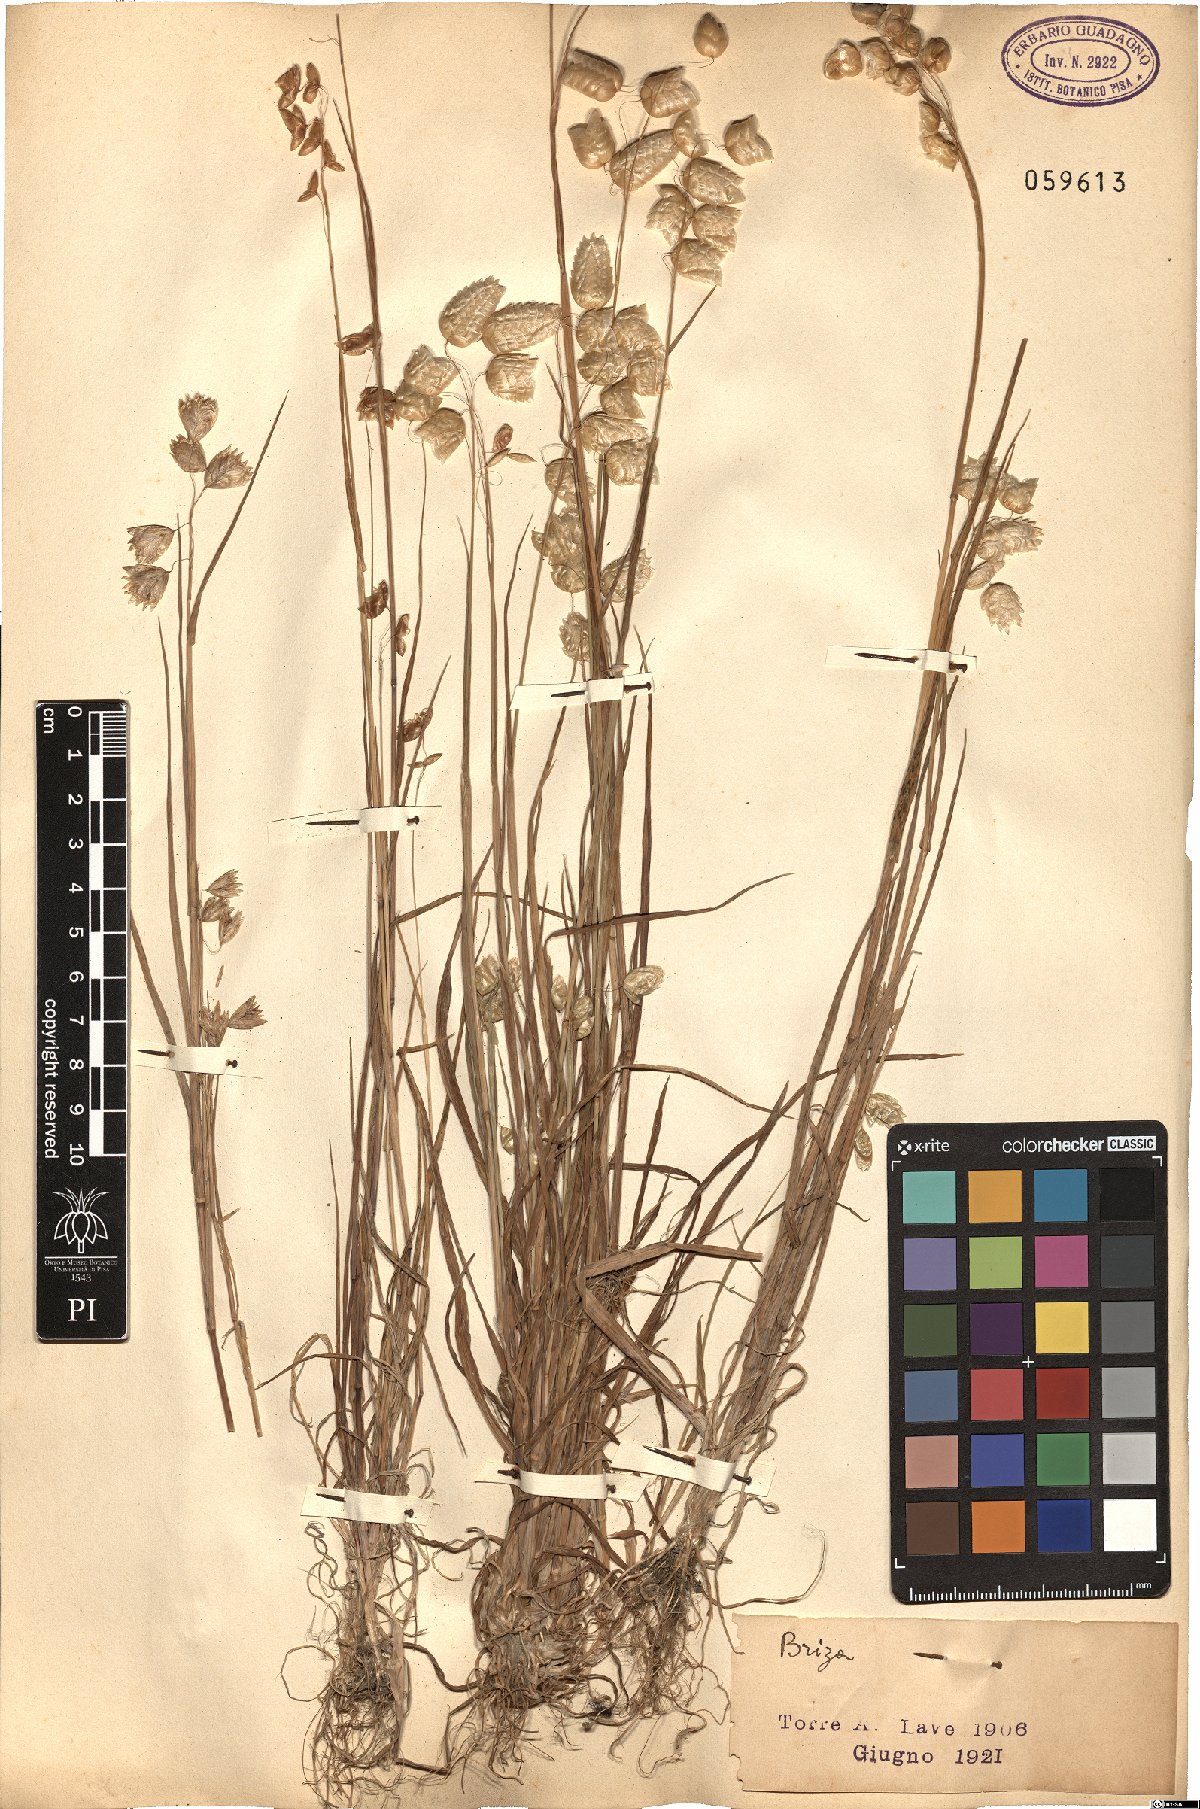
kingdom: Plantae
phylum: Tracheophyta
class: Liliopsida
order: Poales
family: Poaceae
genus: Briza
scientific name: Briza
